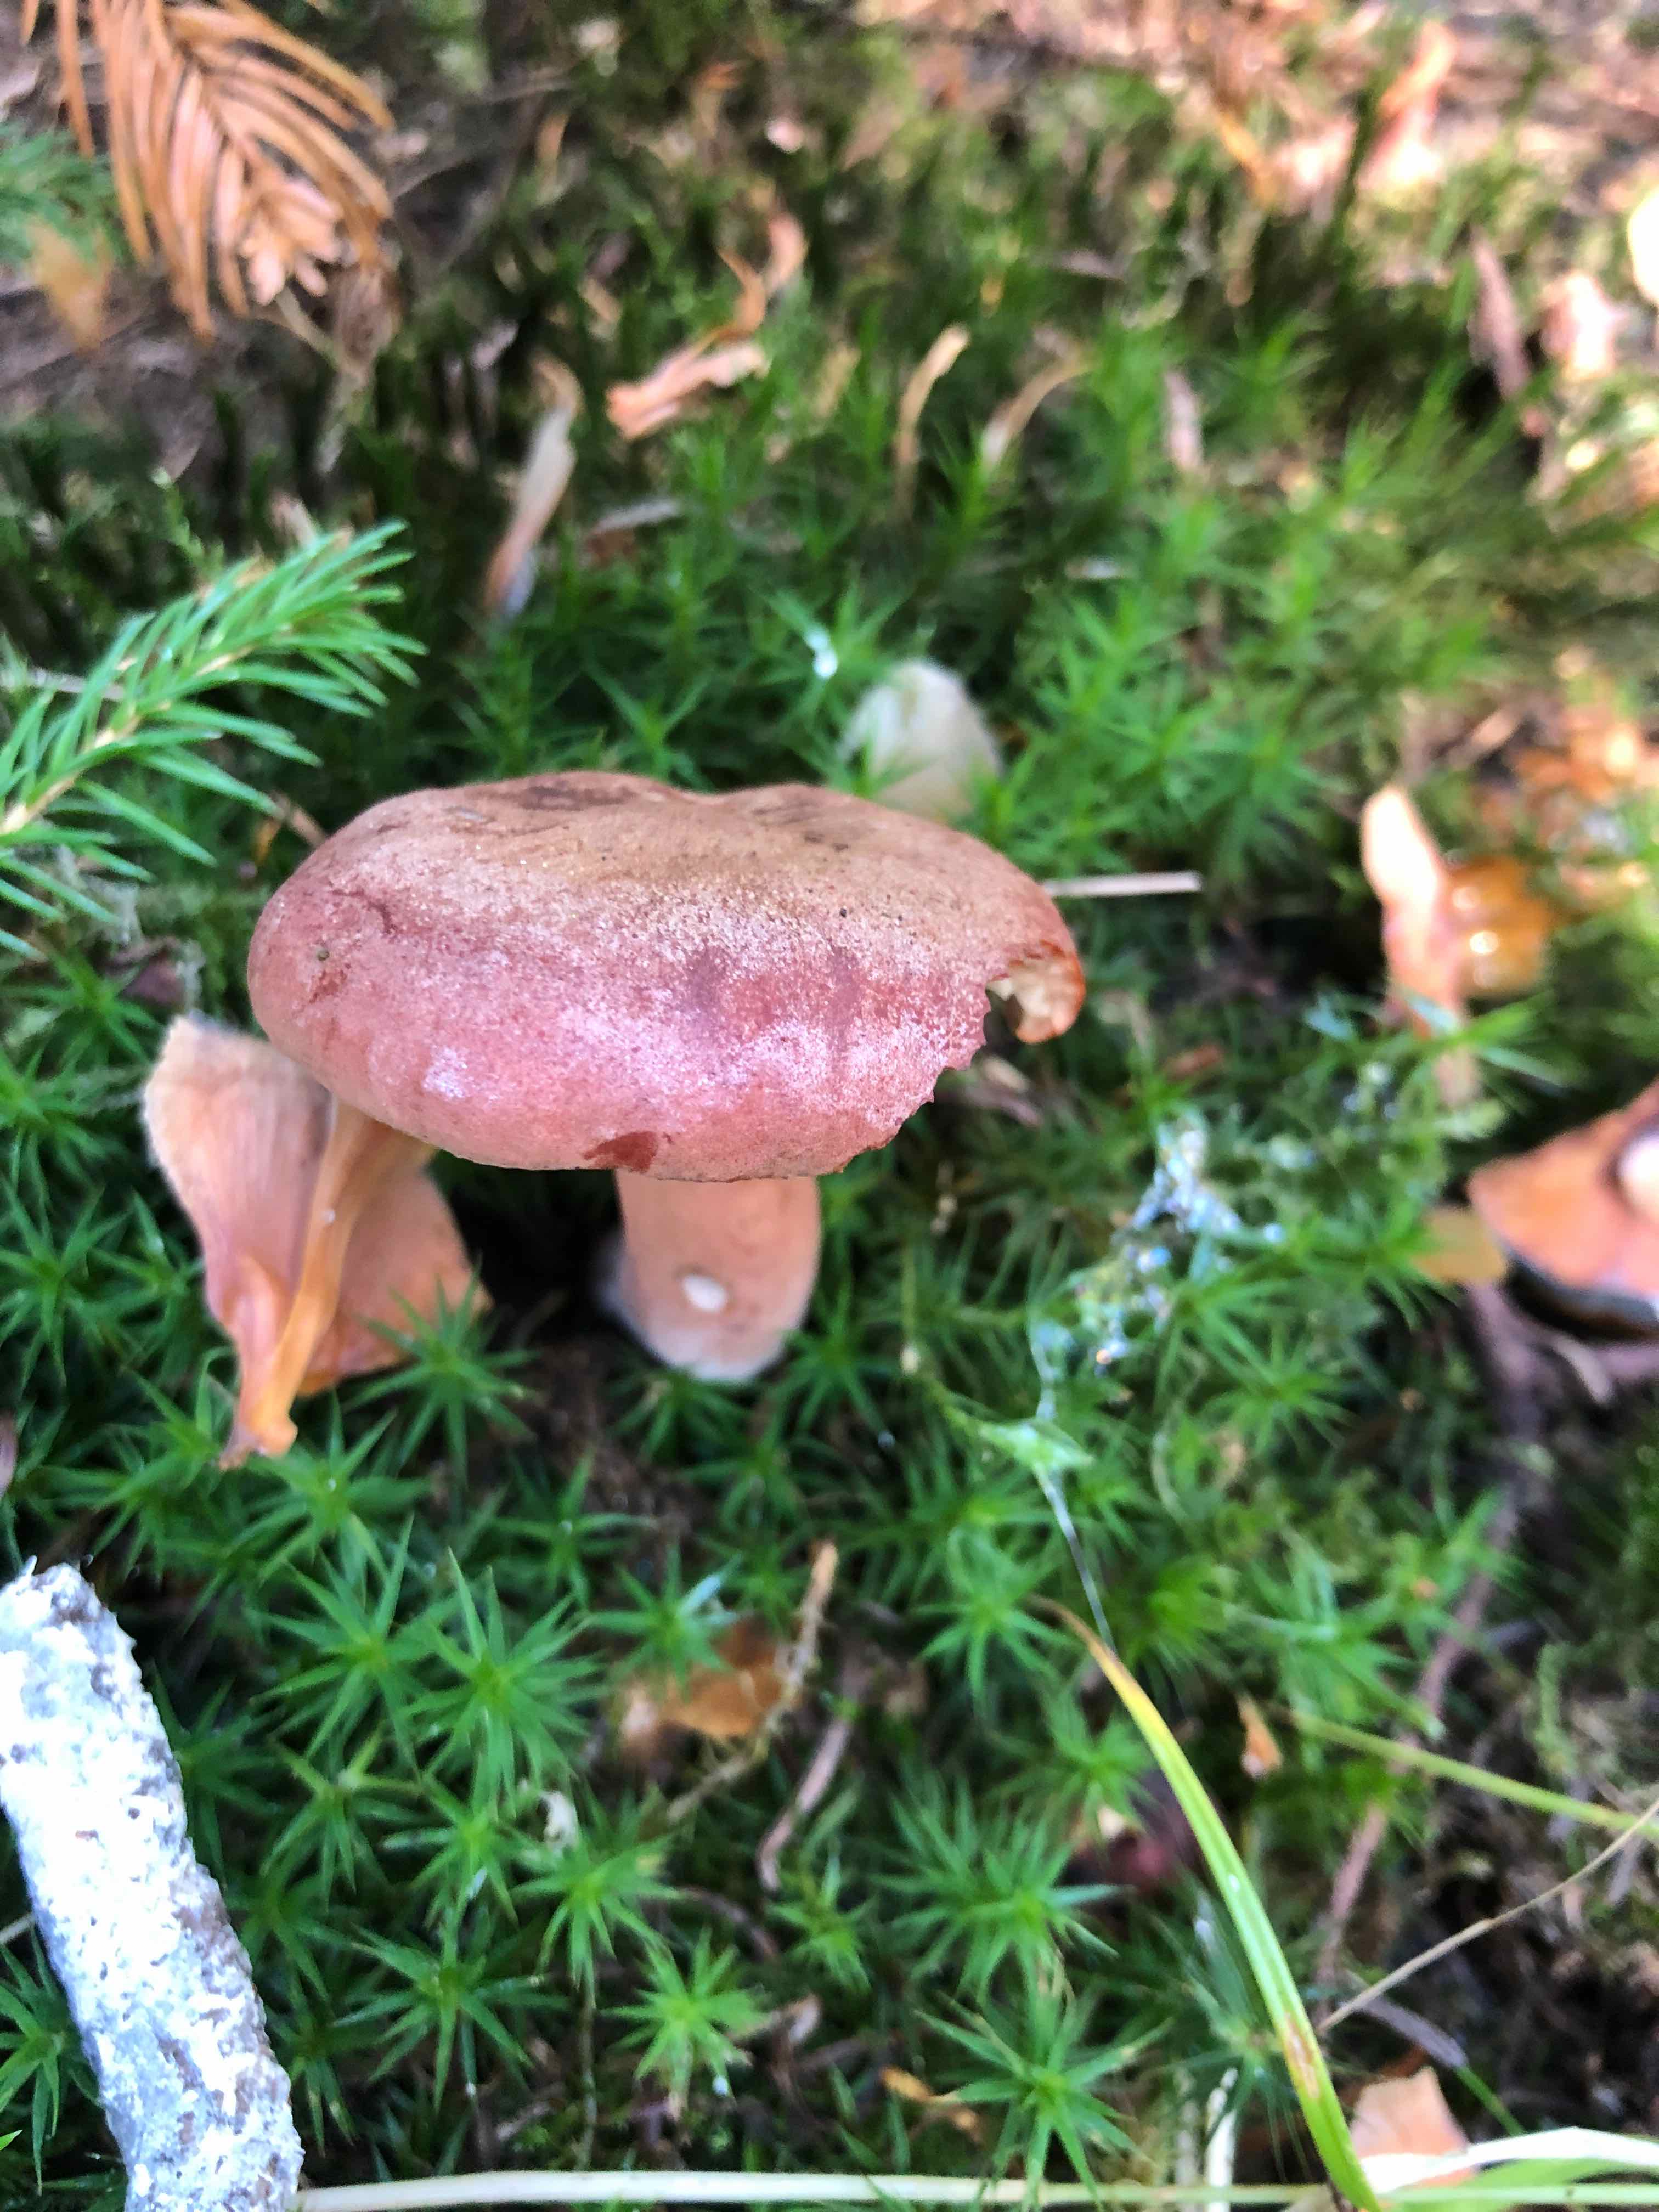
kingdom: Fungi
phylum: Basidiomycota
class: Agaricomycetes
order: Russulales
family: Russulaceae
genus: Lactarius
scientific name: Lactarius rufus
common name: rødbrun mælkehat
